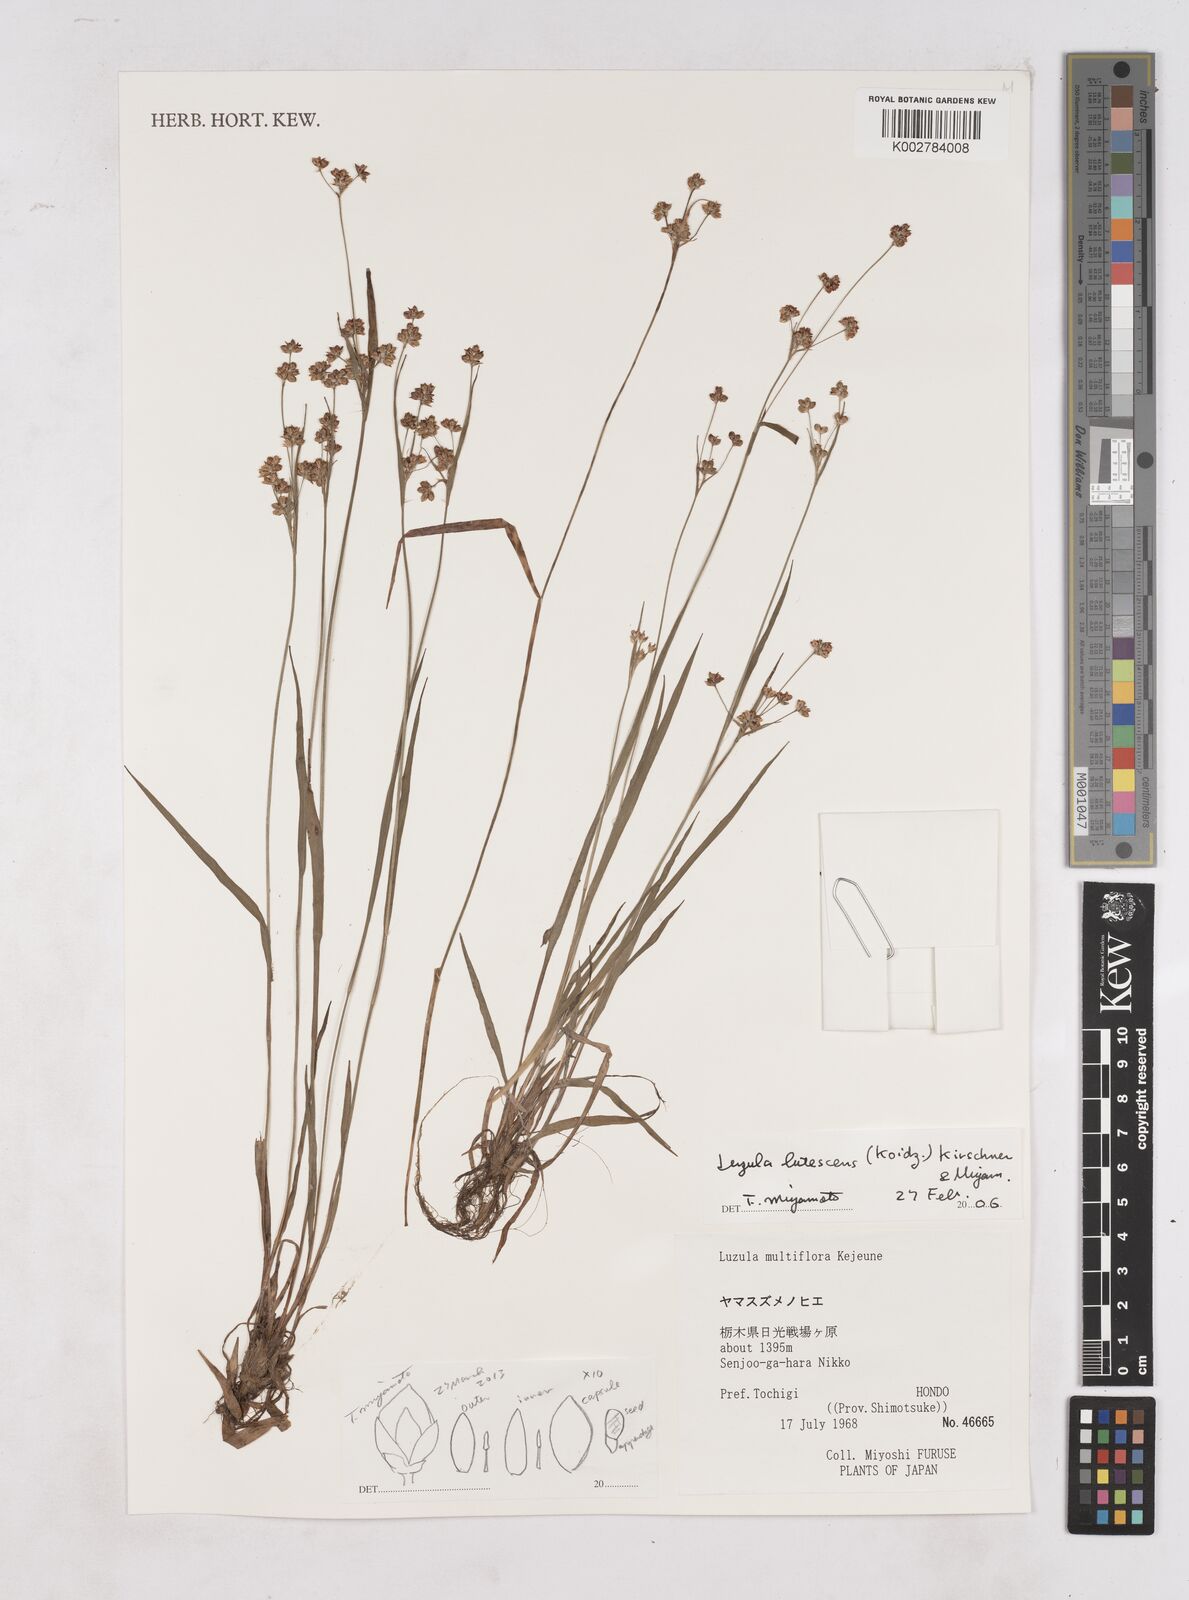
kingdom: Plantae
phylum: Tracheophyta
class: Liliopsida
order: Poales
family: Juncaceae
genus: Luzula
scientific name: Luzula lutescens
